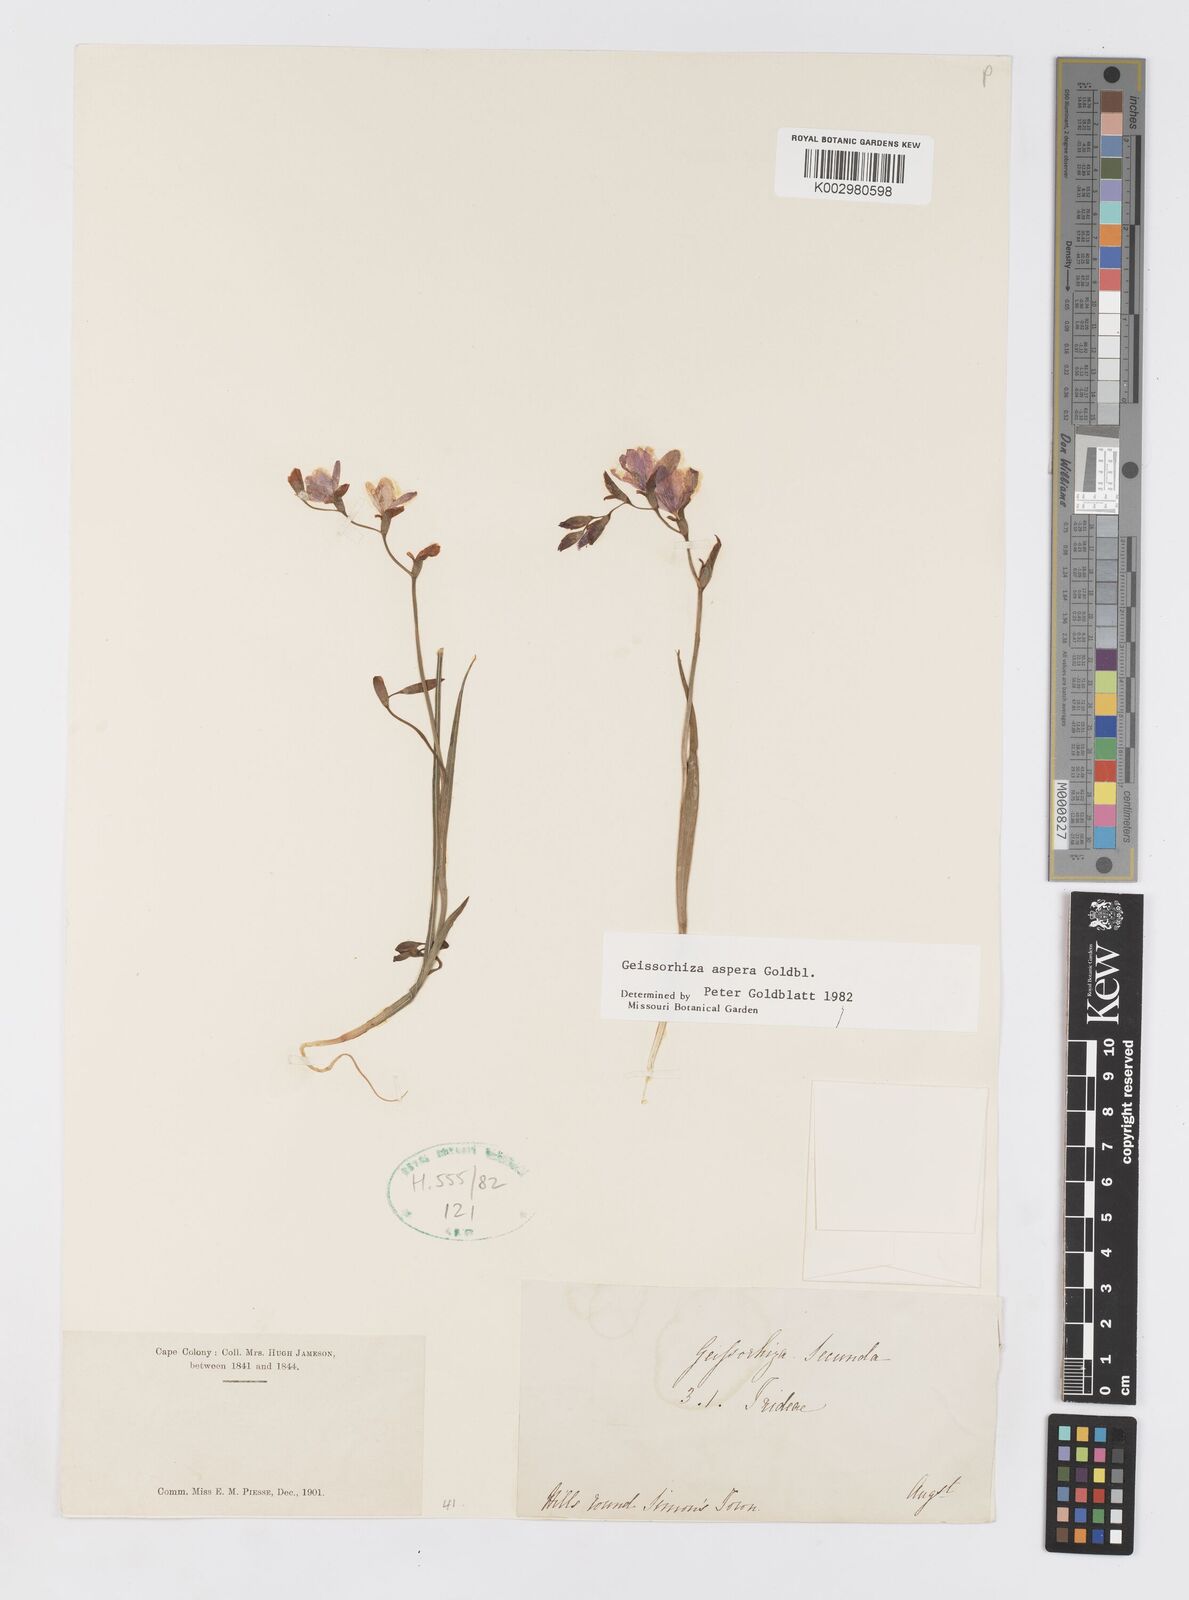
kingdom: Plantae
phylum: Tracheophyta
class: Liliopsida
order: Asparagales
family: Iridaceae
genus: Geissorhiza
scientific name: Geissorhiza aspera
